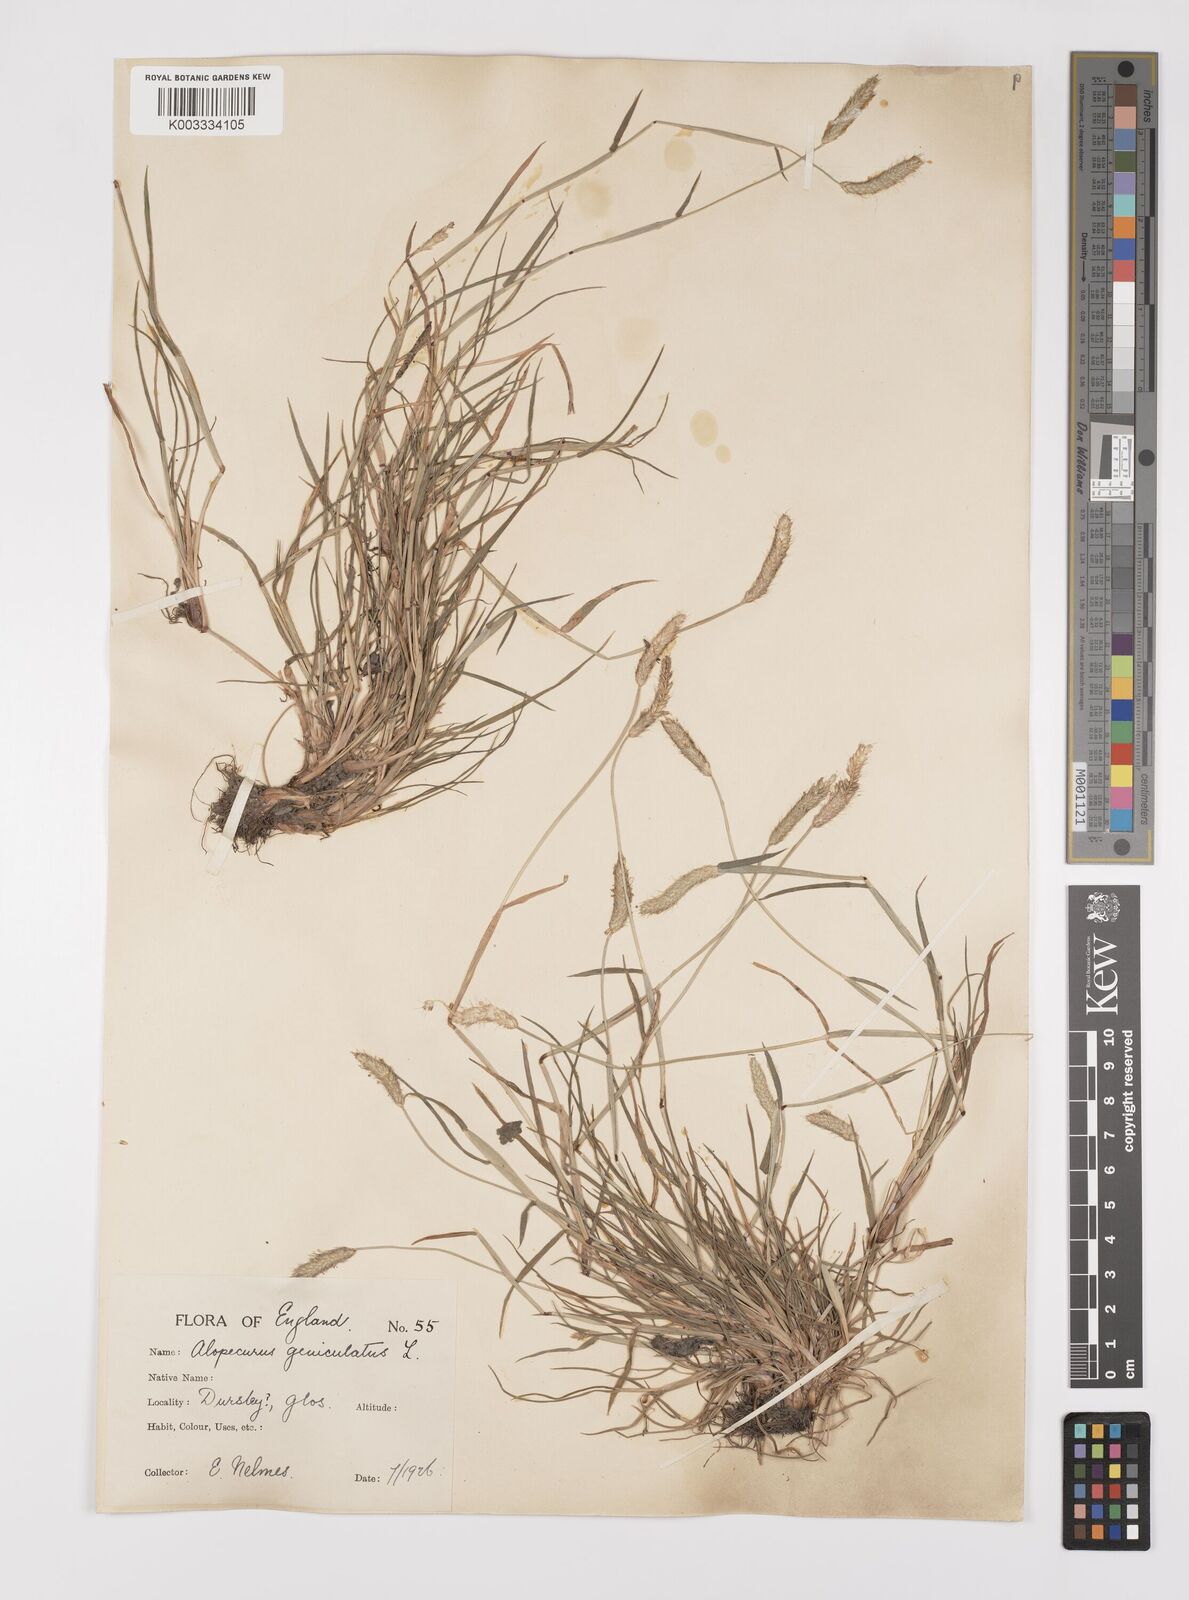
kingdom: Plantae
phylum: Tracheophyta
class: Liliopsida
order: Poales
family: Poaceae
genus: Alopecurus
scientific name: Alopecurus geniculatus
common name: Water foxtail
